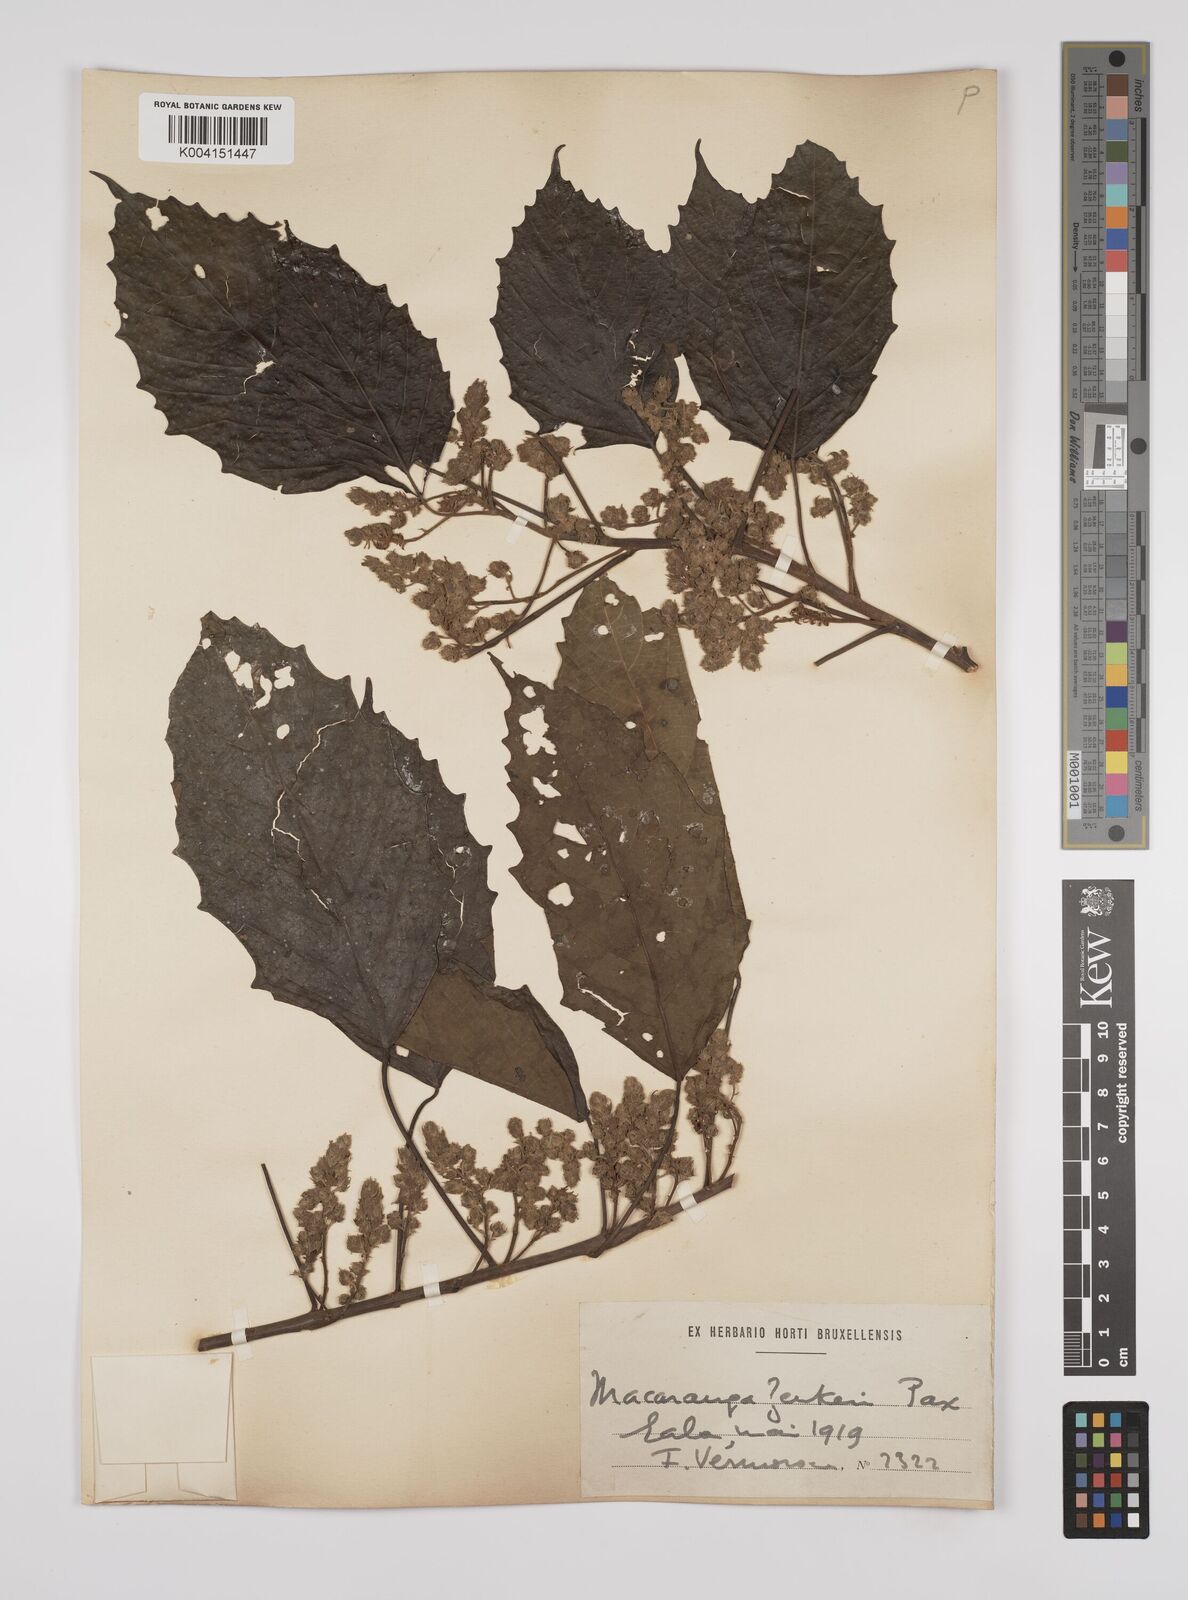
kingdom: Plantae
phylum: Tracheophyta
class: Magnoliopsida
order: Malpighiales
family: Euphorbiaceae
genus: Macaranga
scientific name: Macaranga monandra
